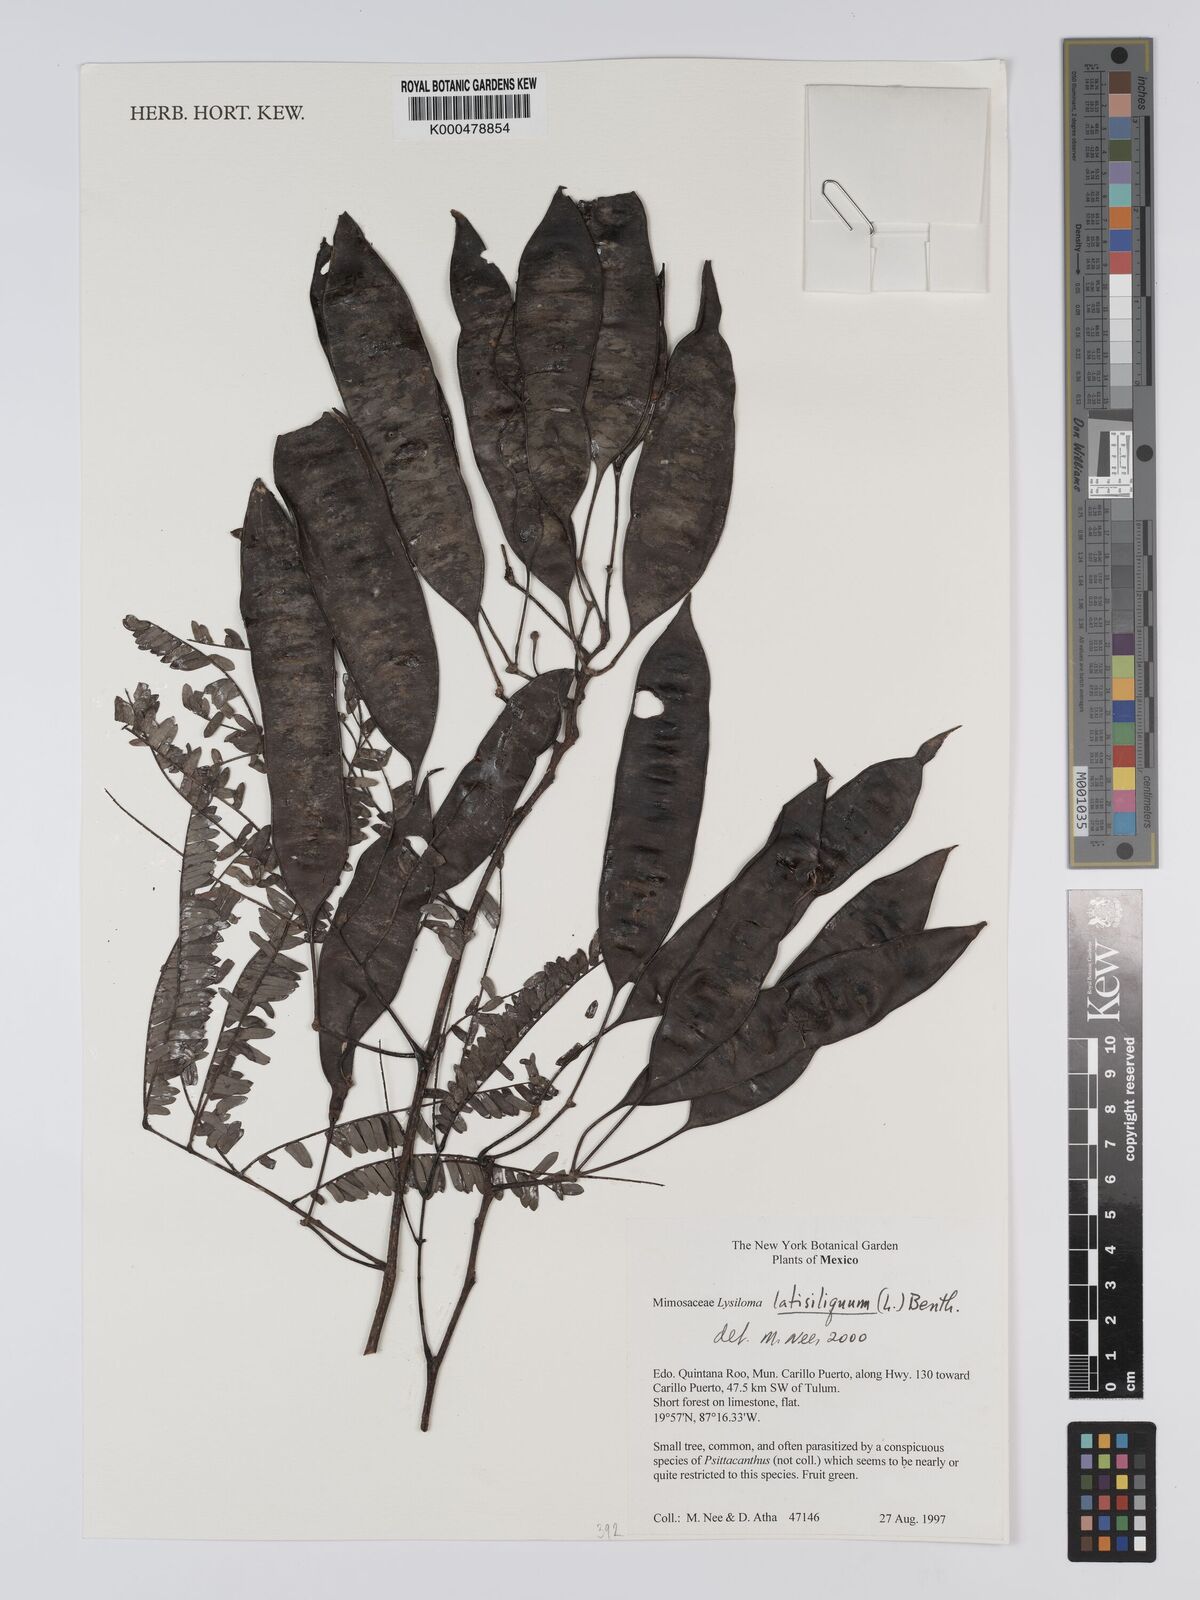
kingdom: Plantae
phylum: Tracheophyta
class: Magnoliopsida
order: Fabales
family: Fabaceae
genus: Lysiloma
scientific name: Lysiloma latisiliquum
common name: Wild tamarind
